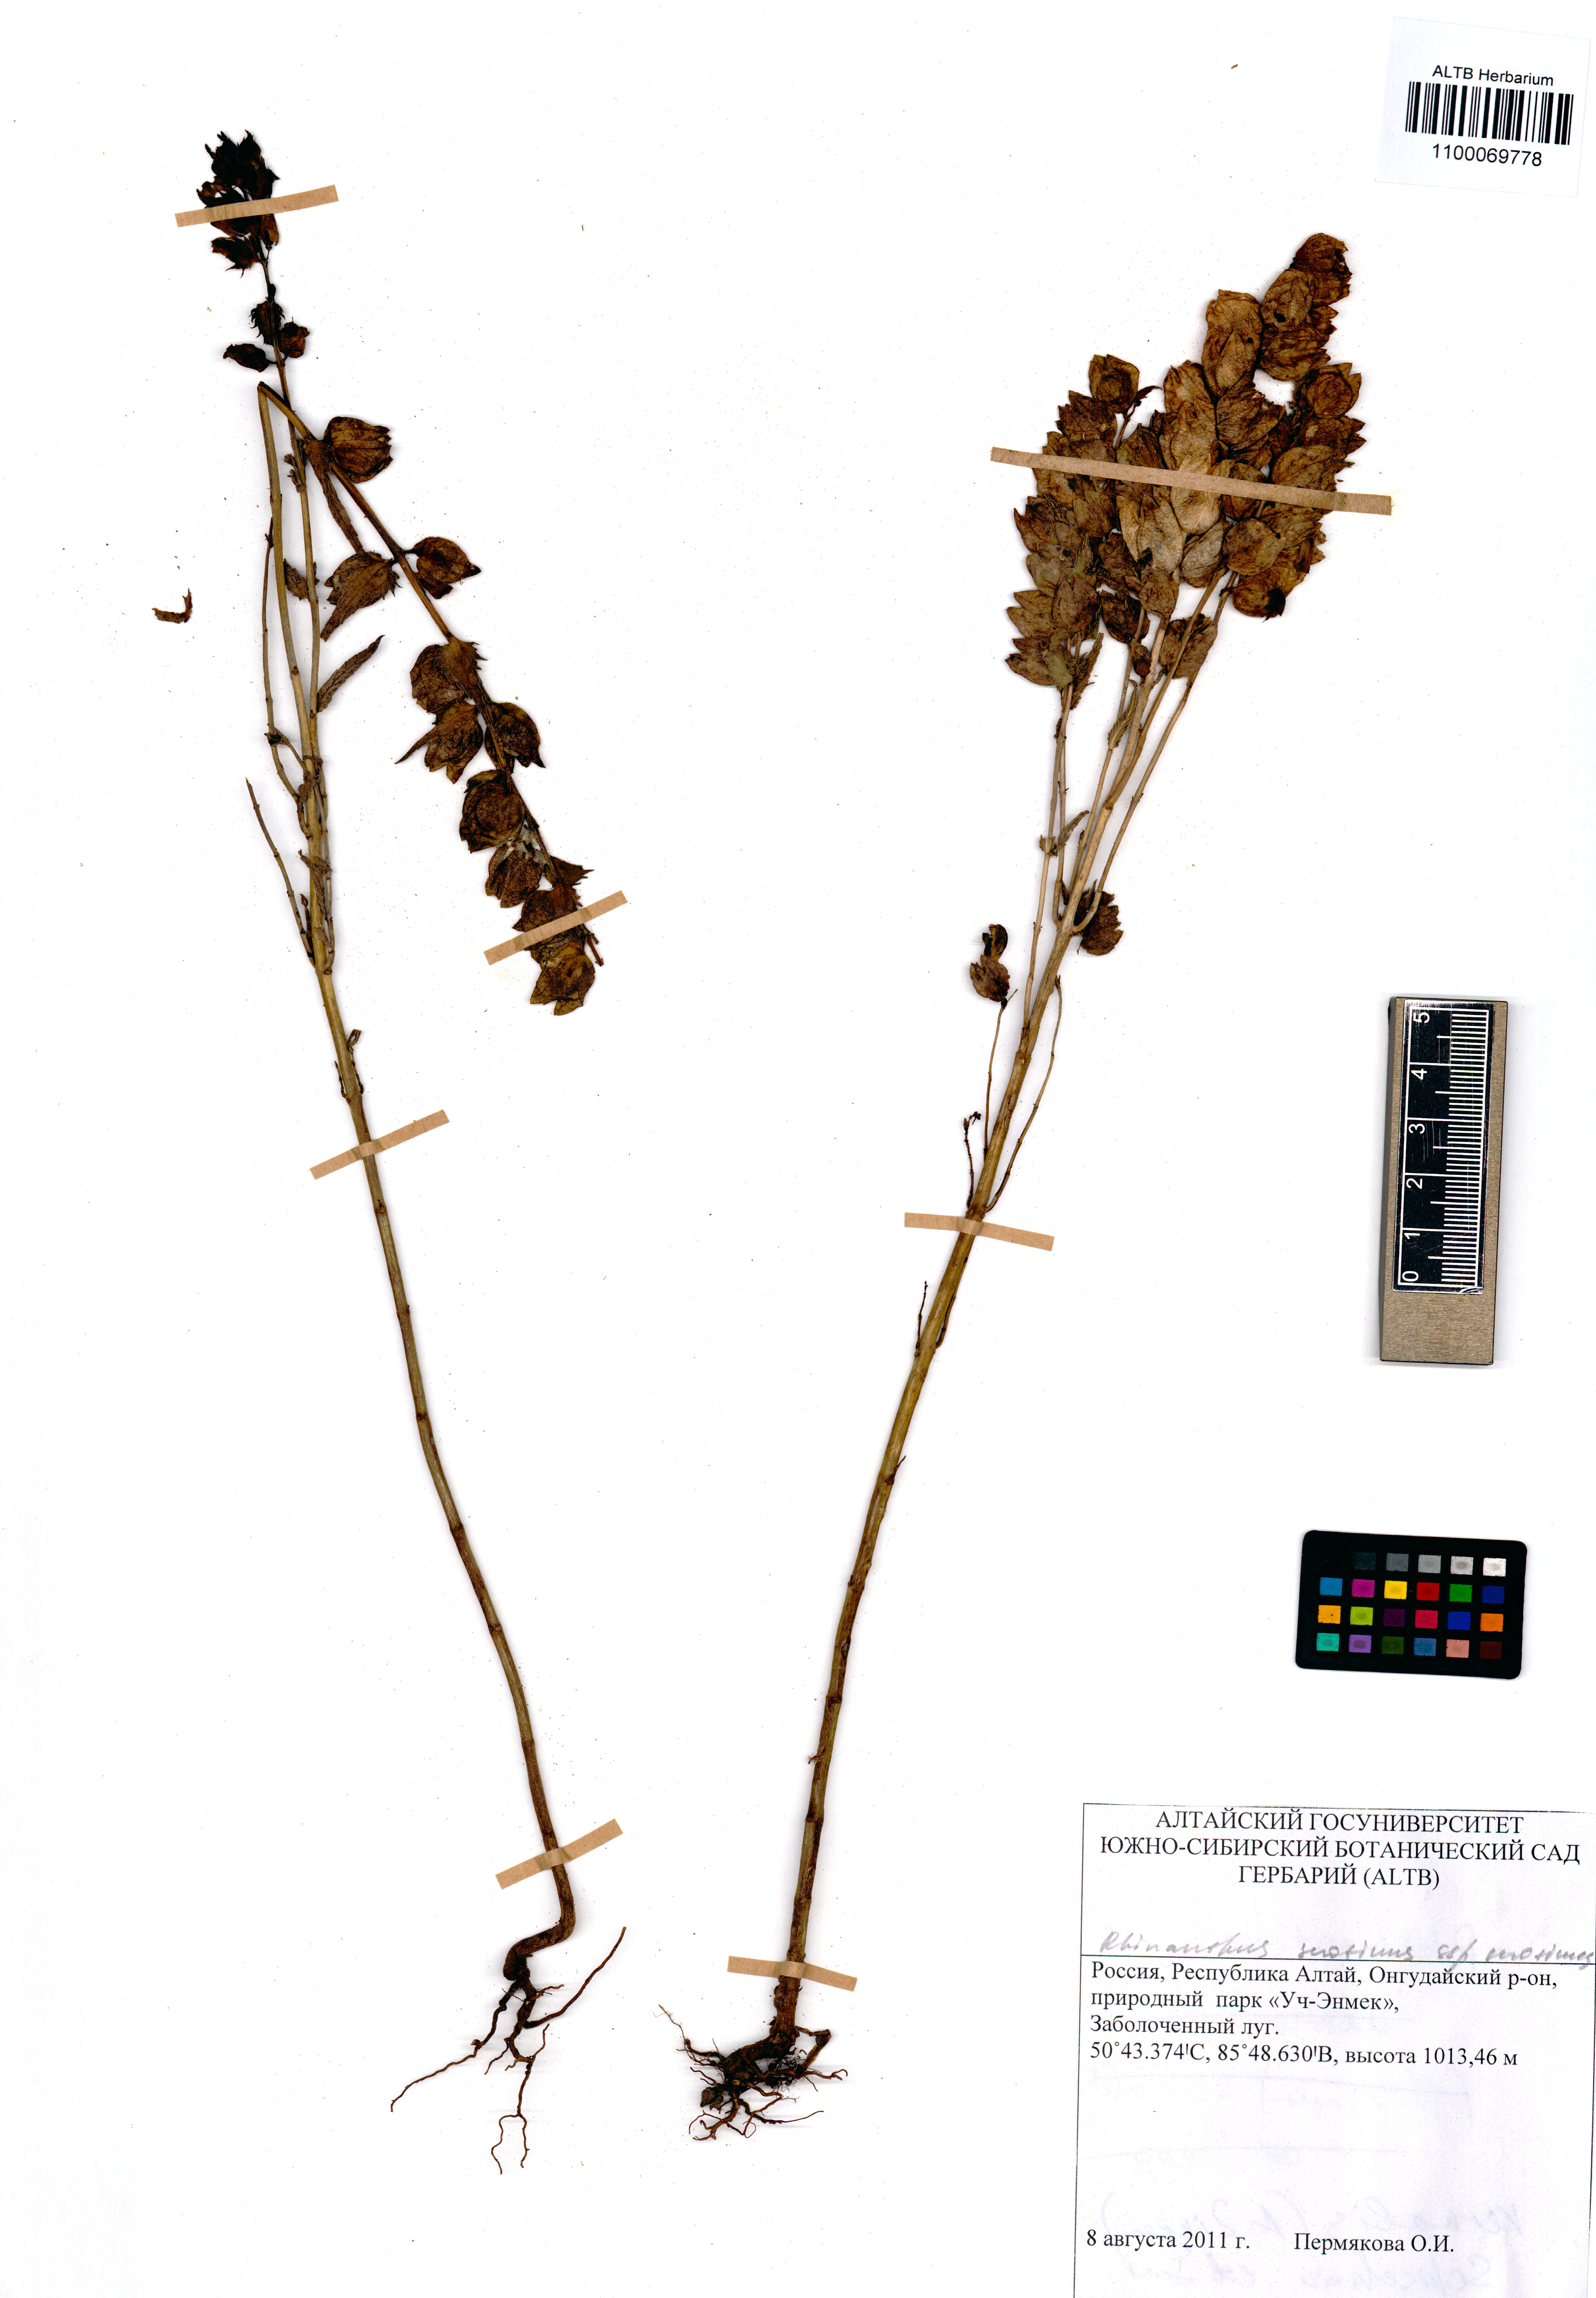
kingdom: Plantae
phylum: Tracheophyta
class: Magnoliopsida
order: Lamiales
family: Orobanchaceae
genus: Rhinanthus
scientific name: Rhinanthus serotinus
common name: Late-flowering yellow rattle
